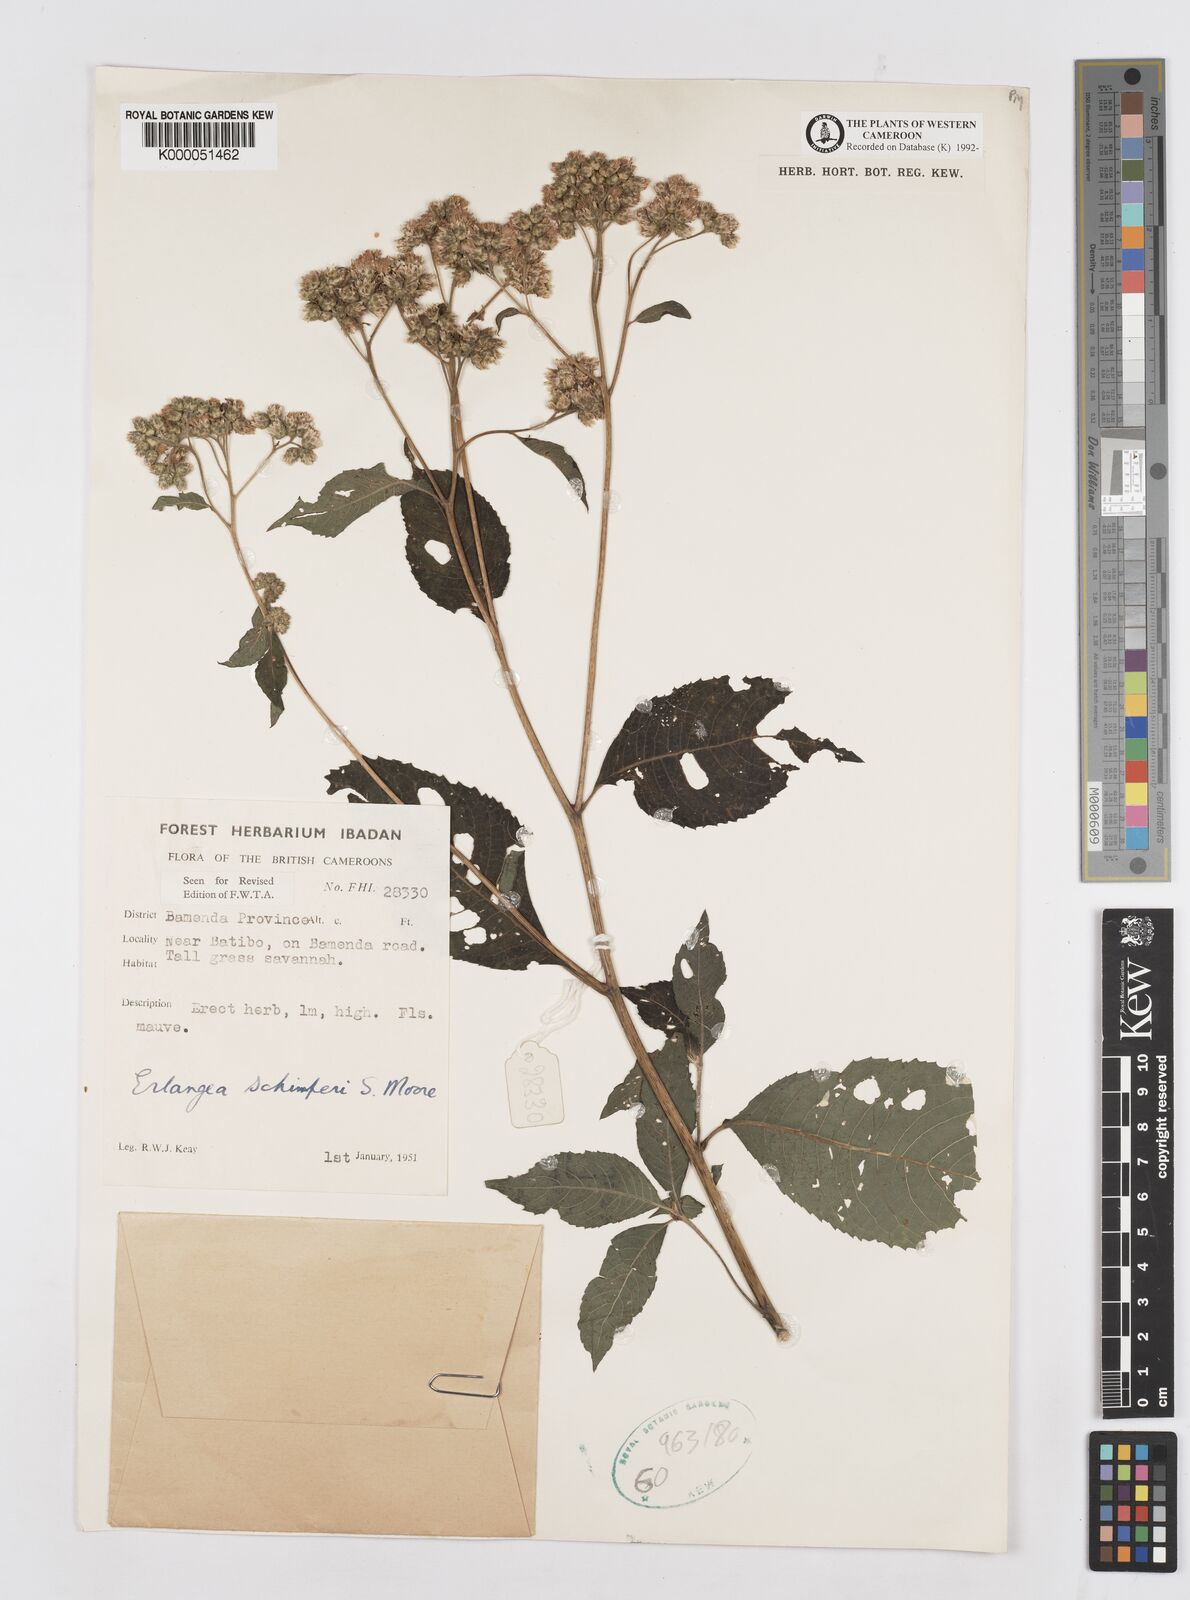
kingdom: Plantae
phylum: Tracheophyta
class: Magnoliopsida
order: Asterales
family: Asteraceae
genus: Bothriocline
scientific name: Bothriocline schimperi
